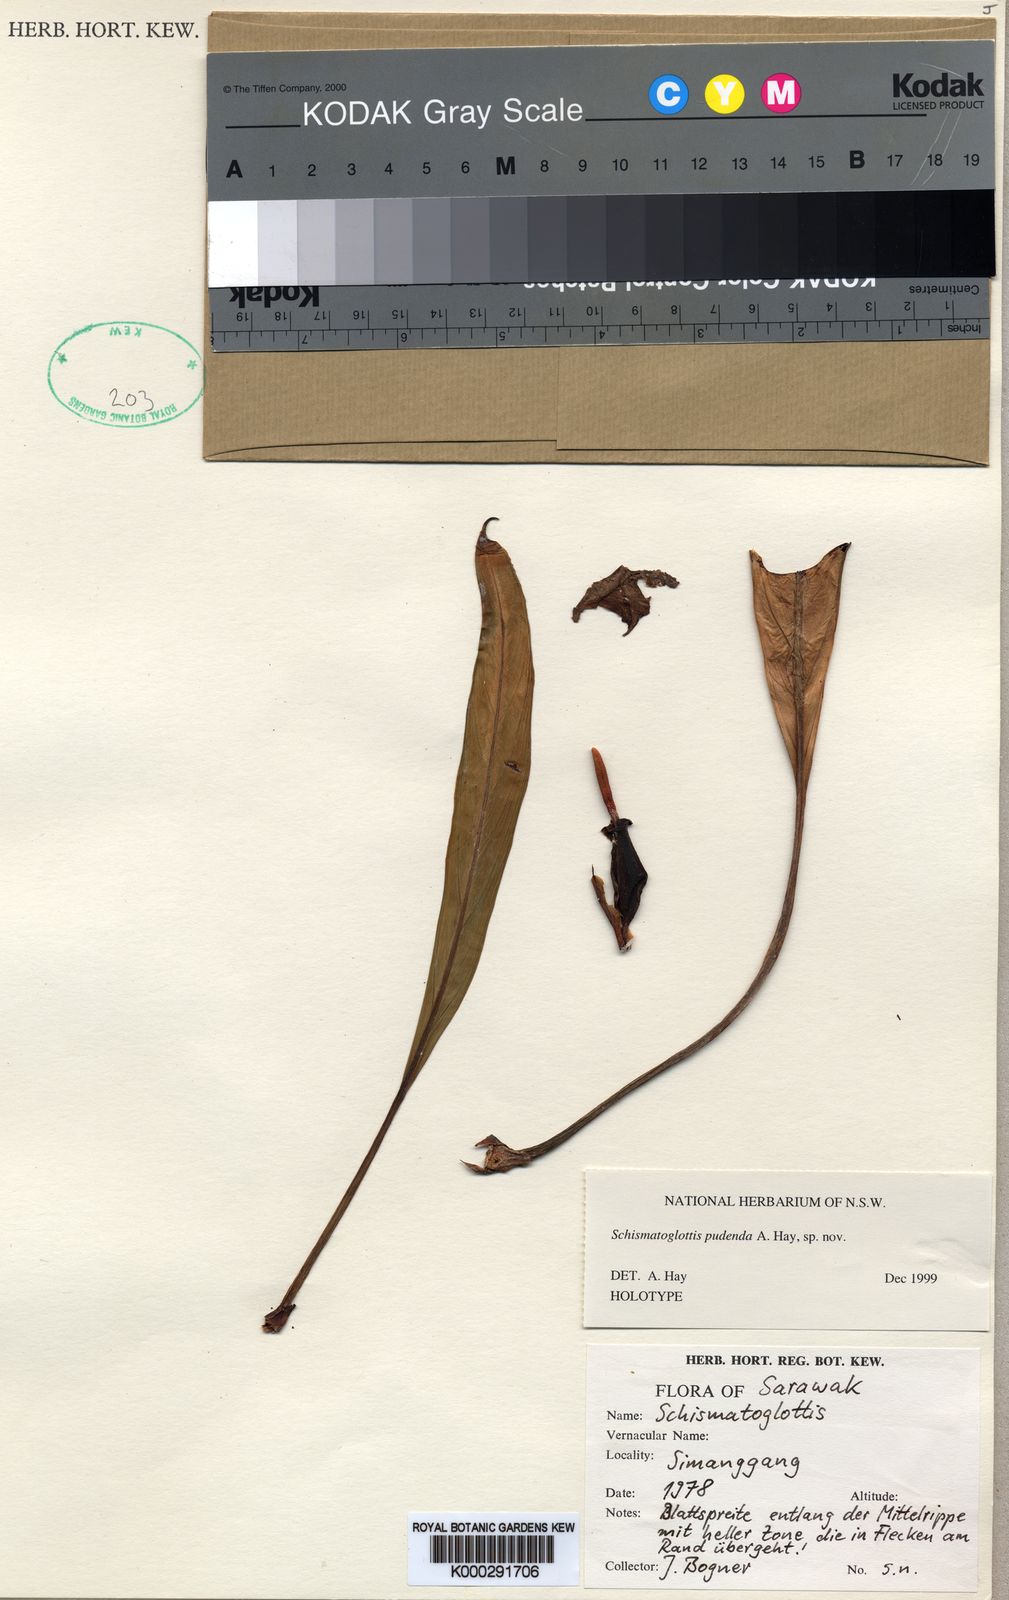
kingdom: Plantae
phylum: Tracheophyta
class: Liliopsida
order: Alismatales
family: Araceae
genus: Schismatoglottis
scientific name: Schismatoglottis
